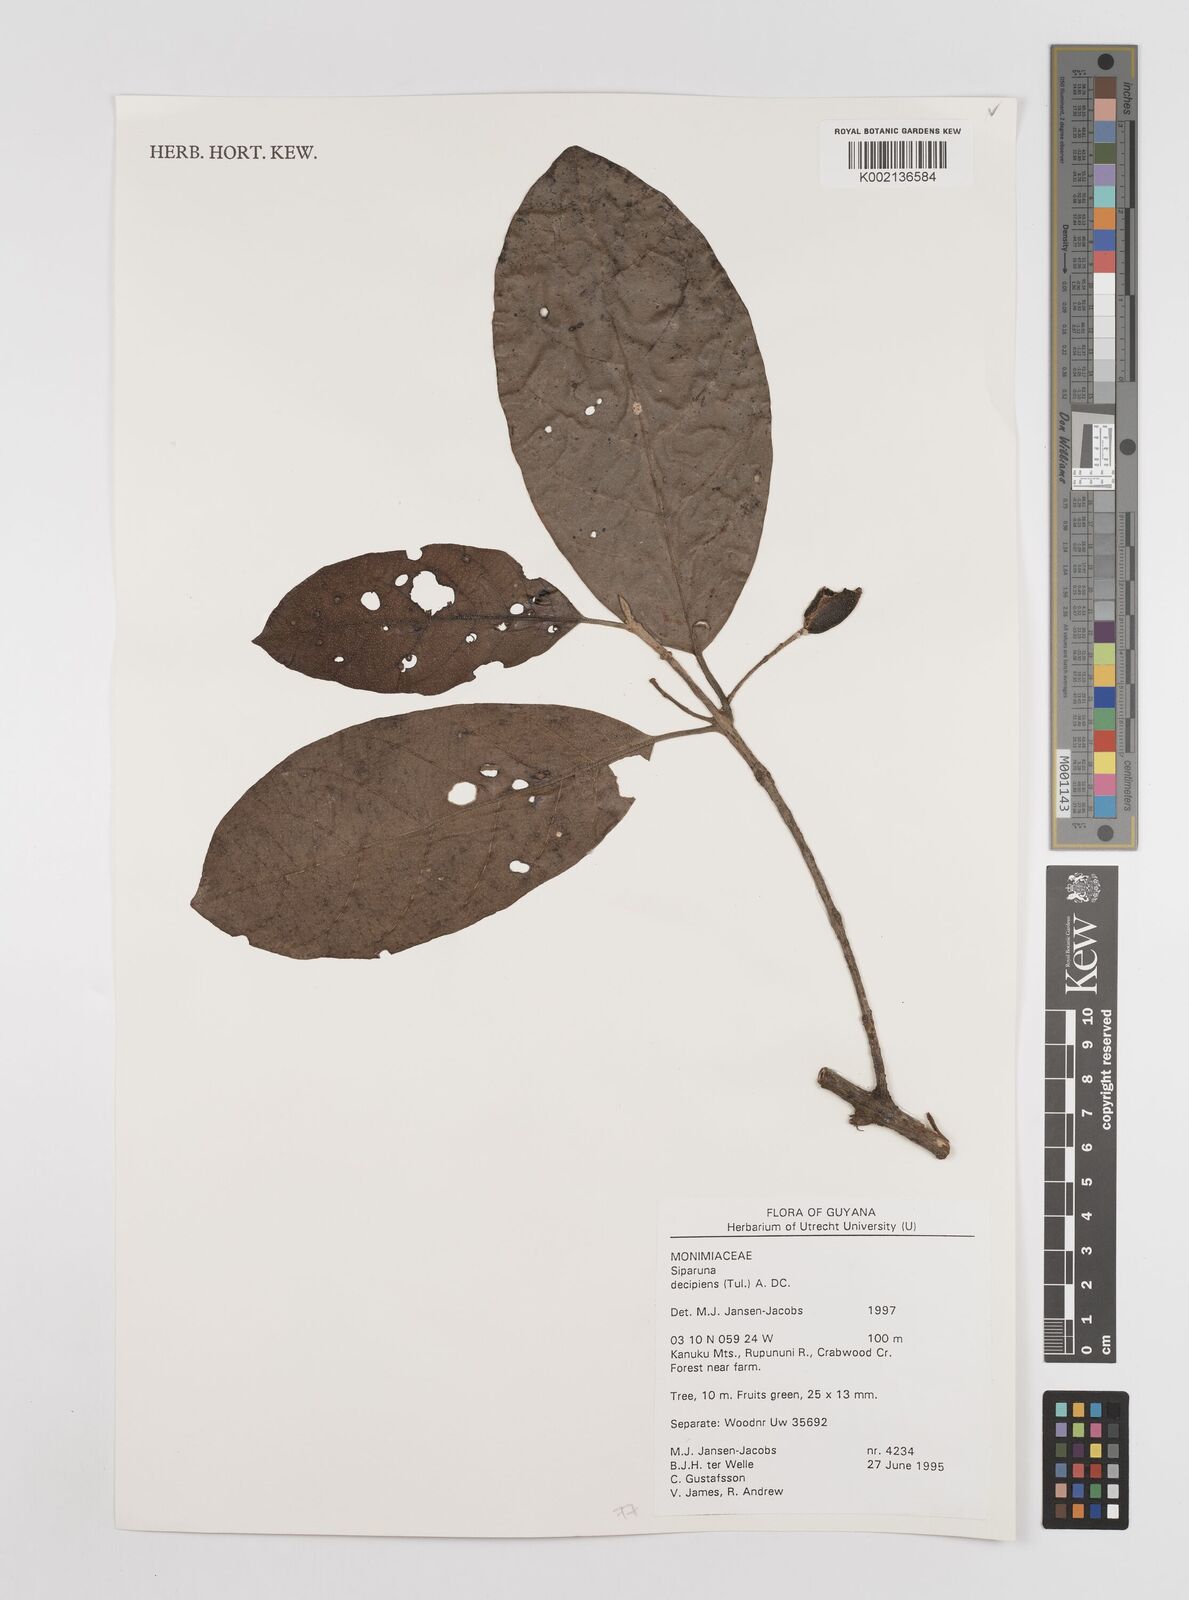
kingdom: Plantae
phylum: Tracheophyta
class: Magnoliopsida
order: Laurales
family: Siparunaceae
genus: Siparuna
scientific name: Siparuna decipiens
